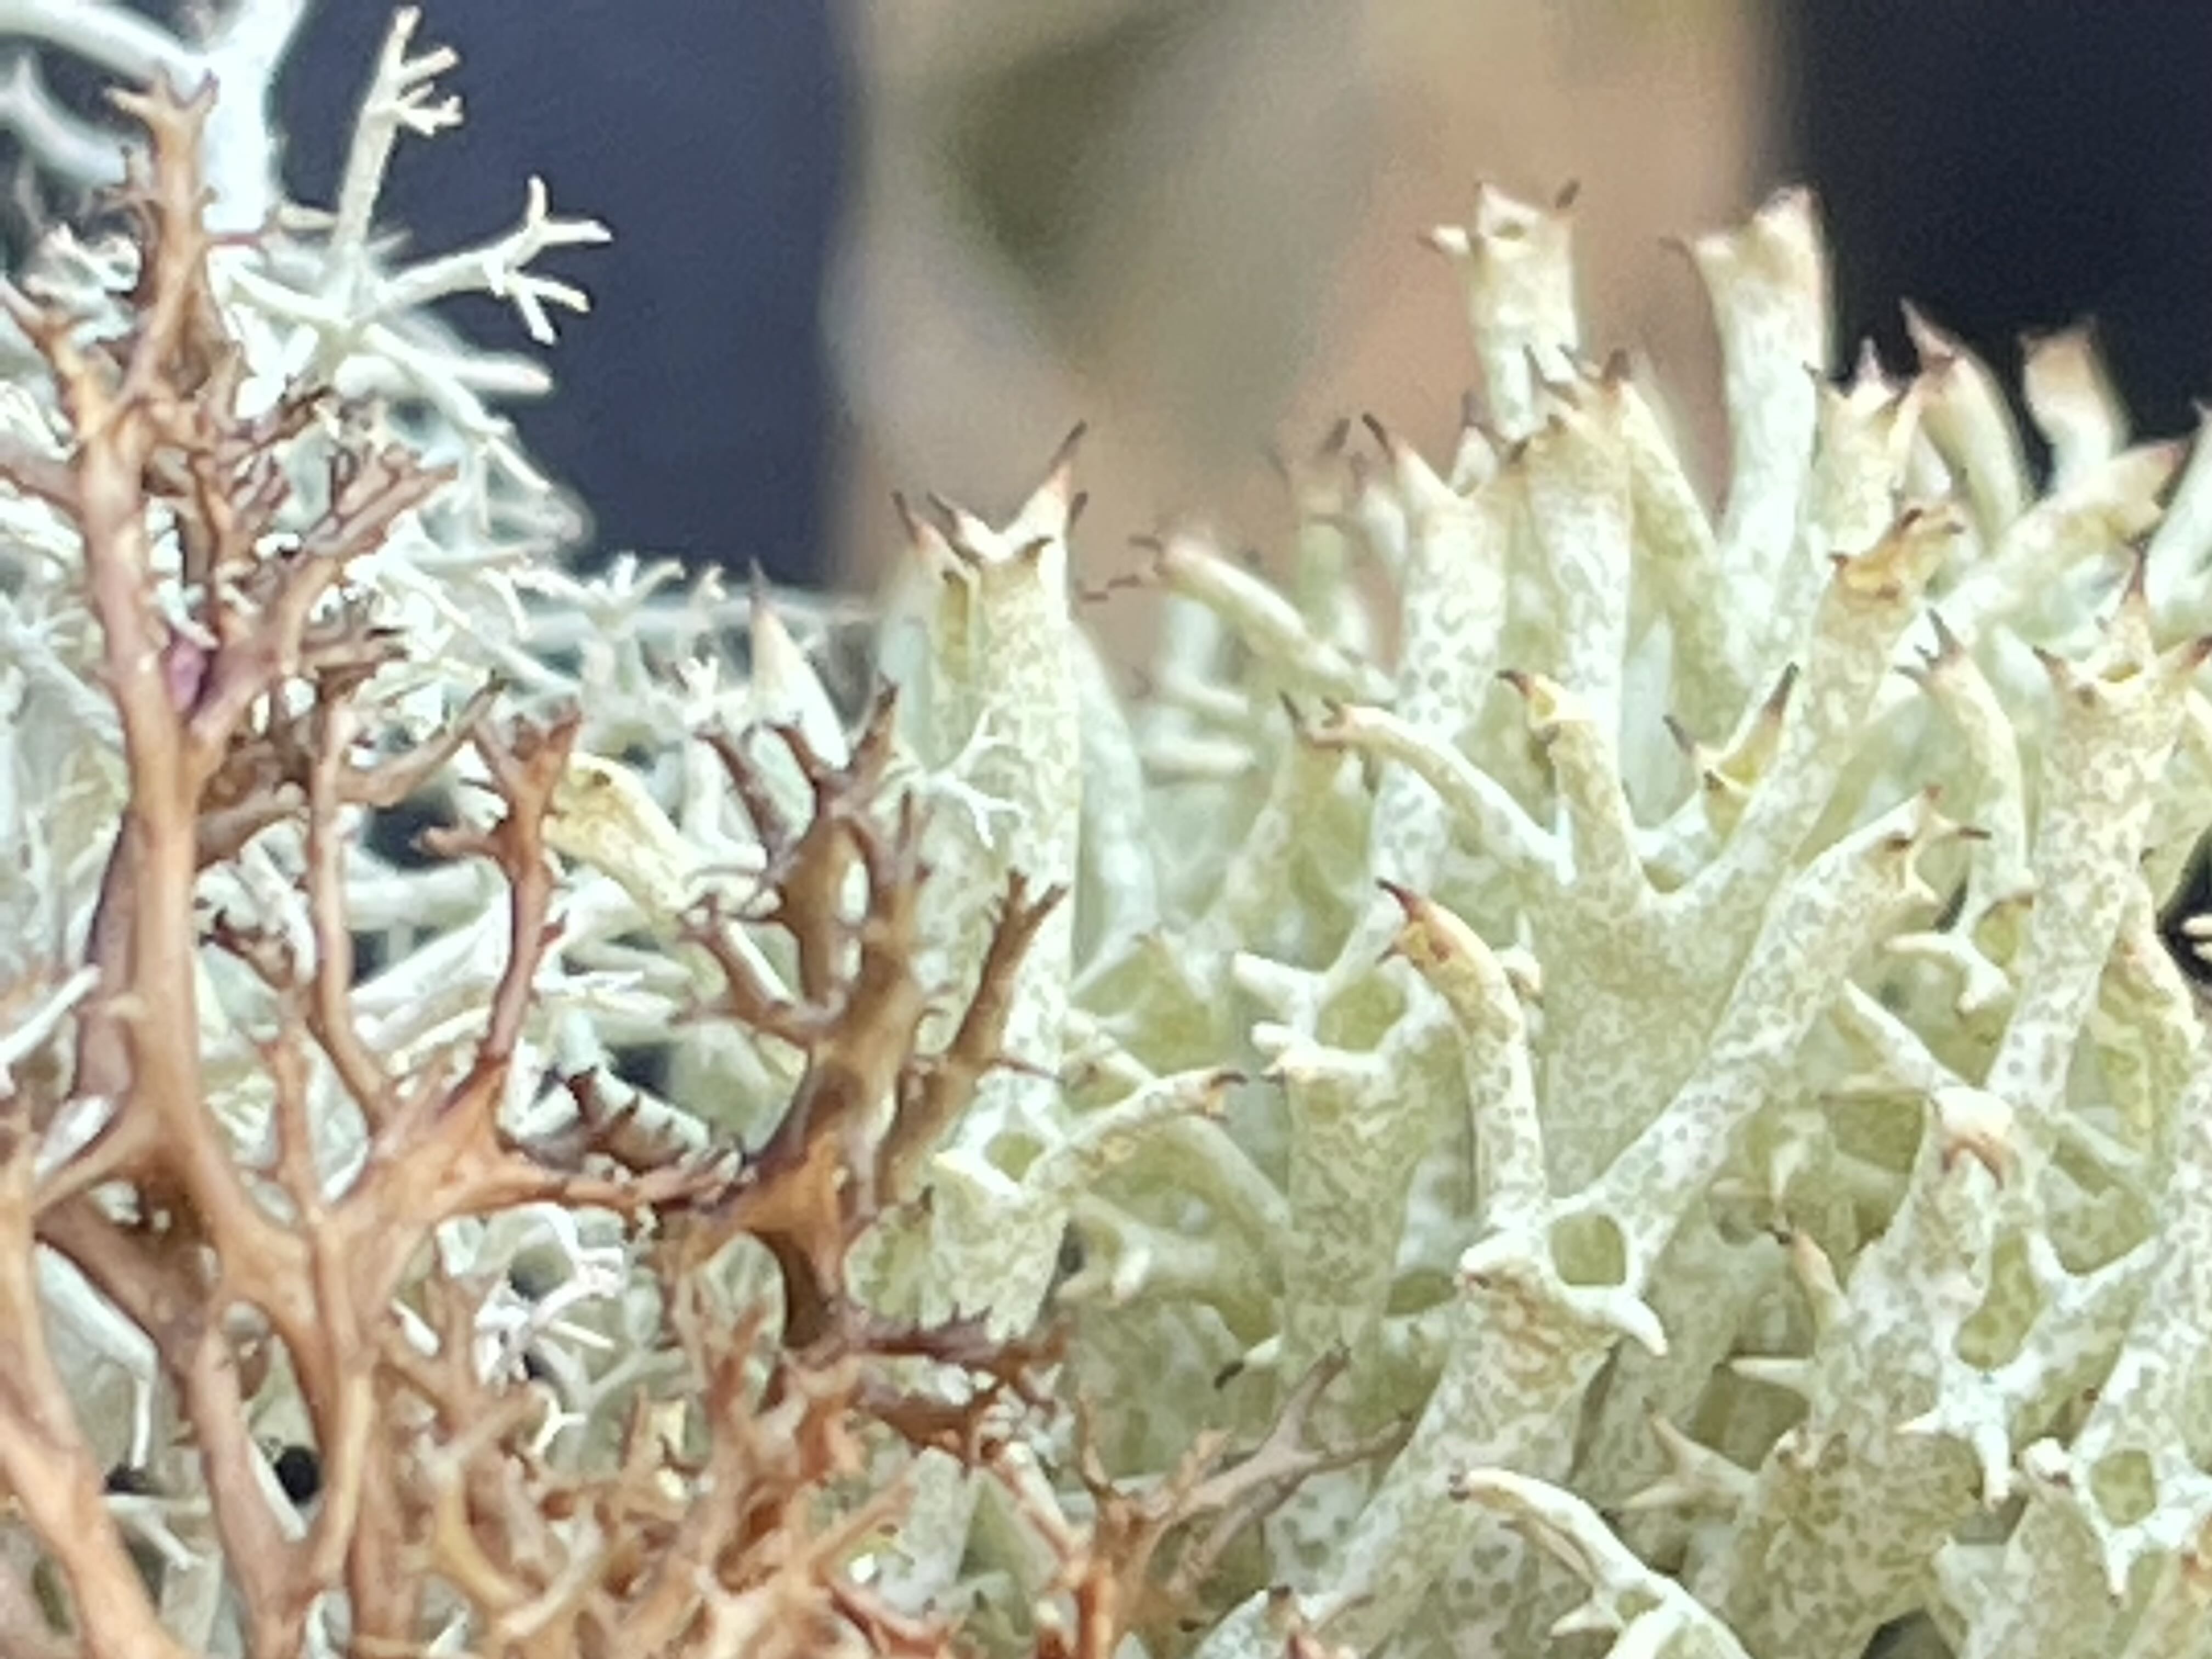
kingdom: Fungi
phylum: Ascomycota
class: Lecanoromycetes
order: Lecanorales
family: Cladoniaceae
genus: Cladonia
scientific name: Cladonia uncialis
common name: pigget bægerlav
